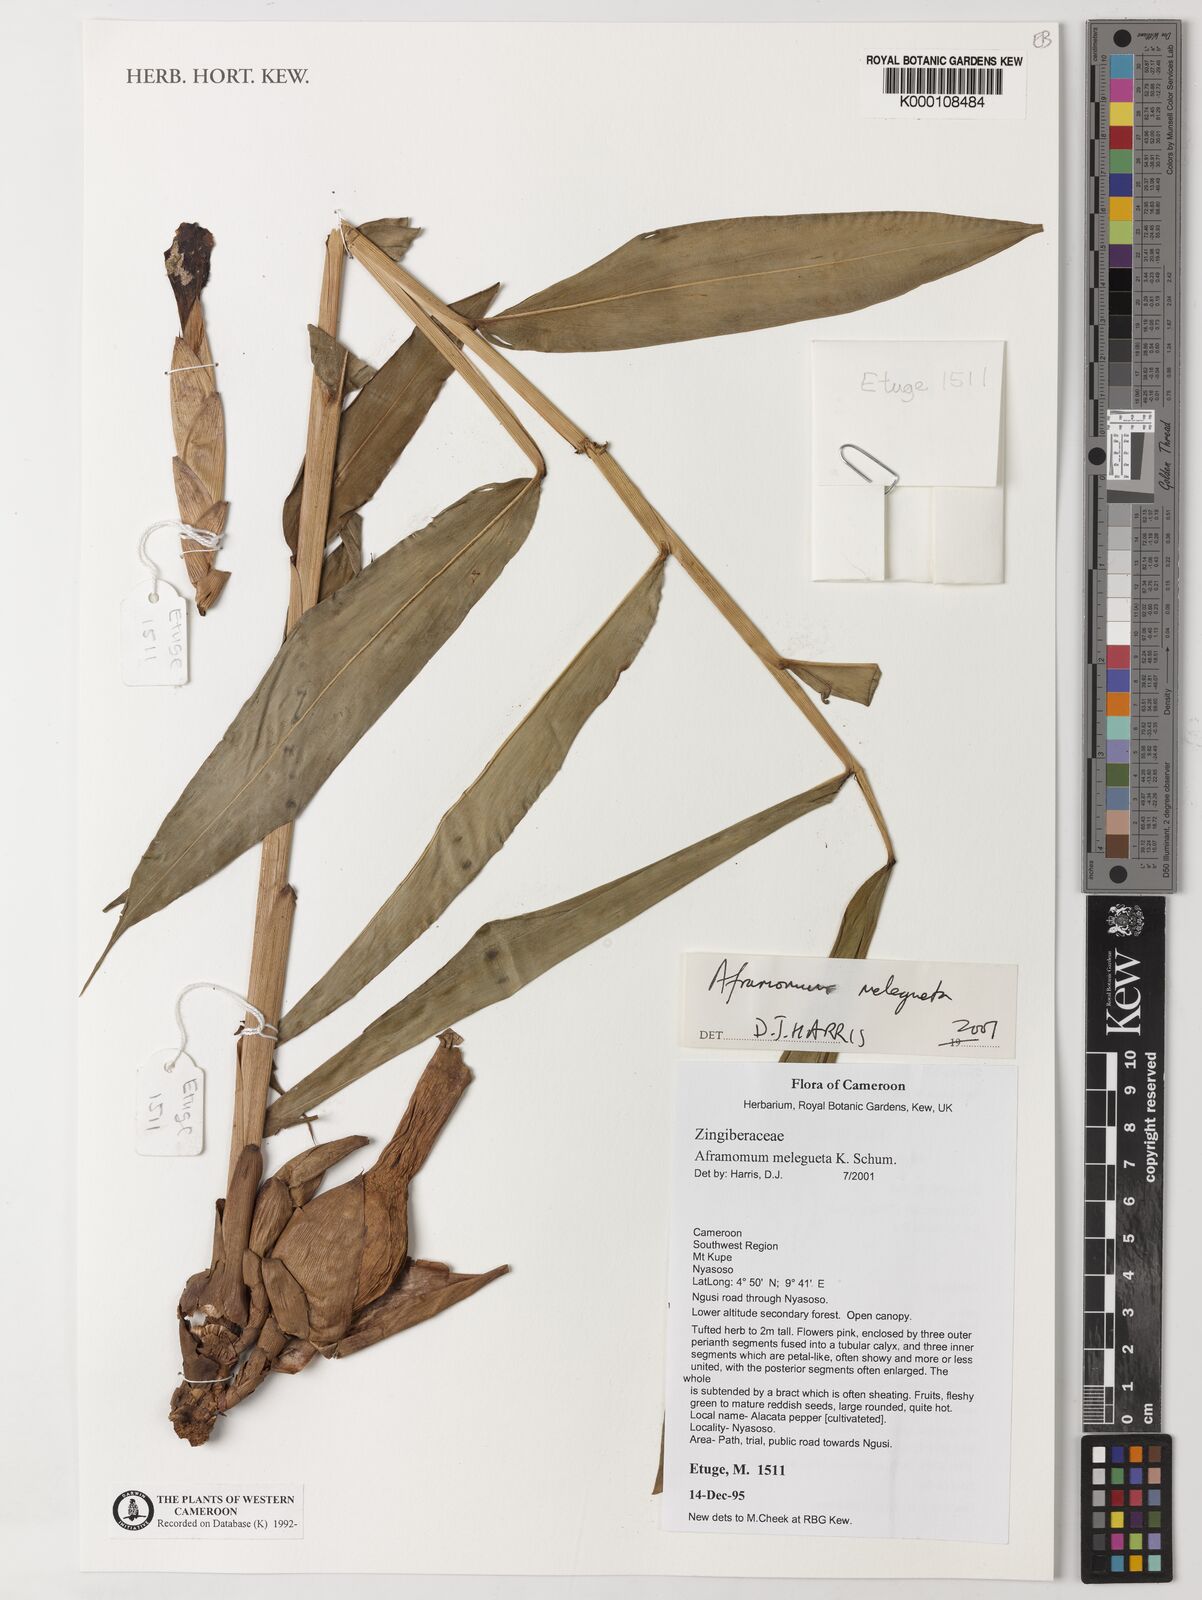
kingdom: Plantae
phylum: Tracheophyta
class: Liliopsida
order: Zingiberales
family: Zingiberaceae
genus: Aframomum
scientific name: Aframomum melegueta
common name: Grains of paradise
